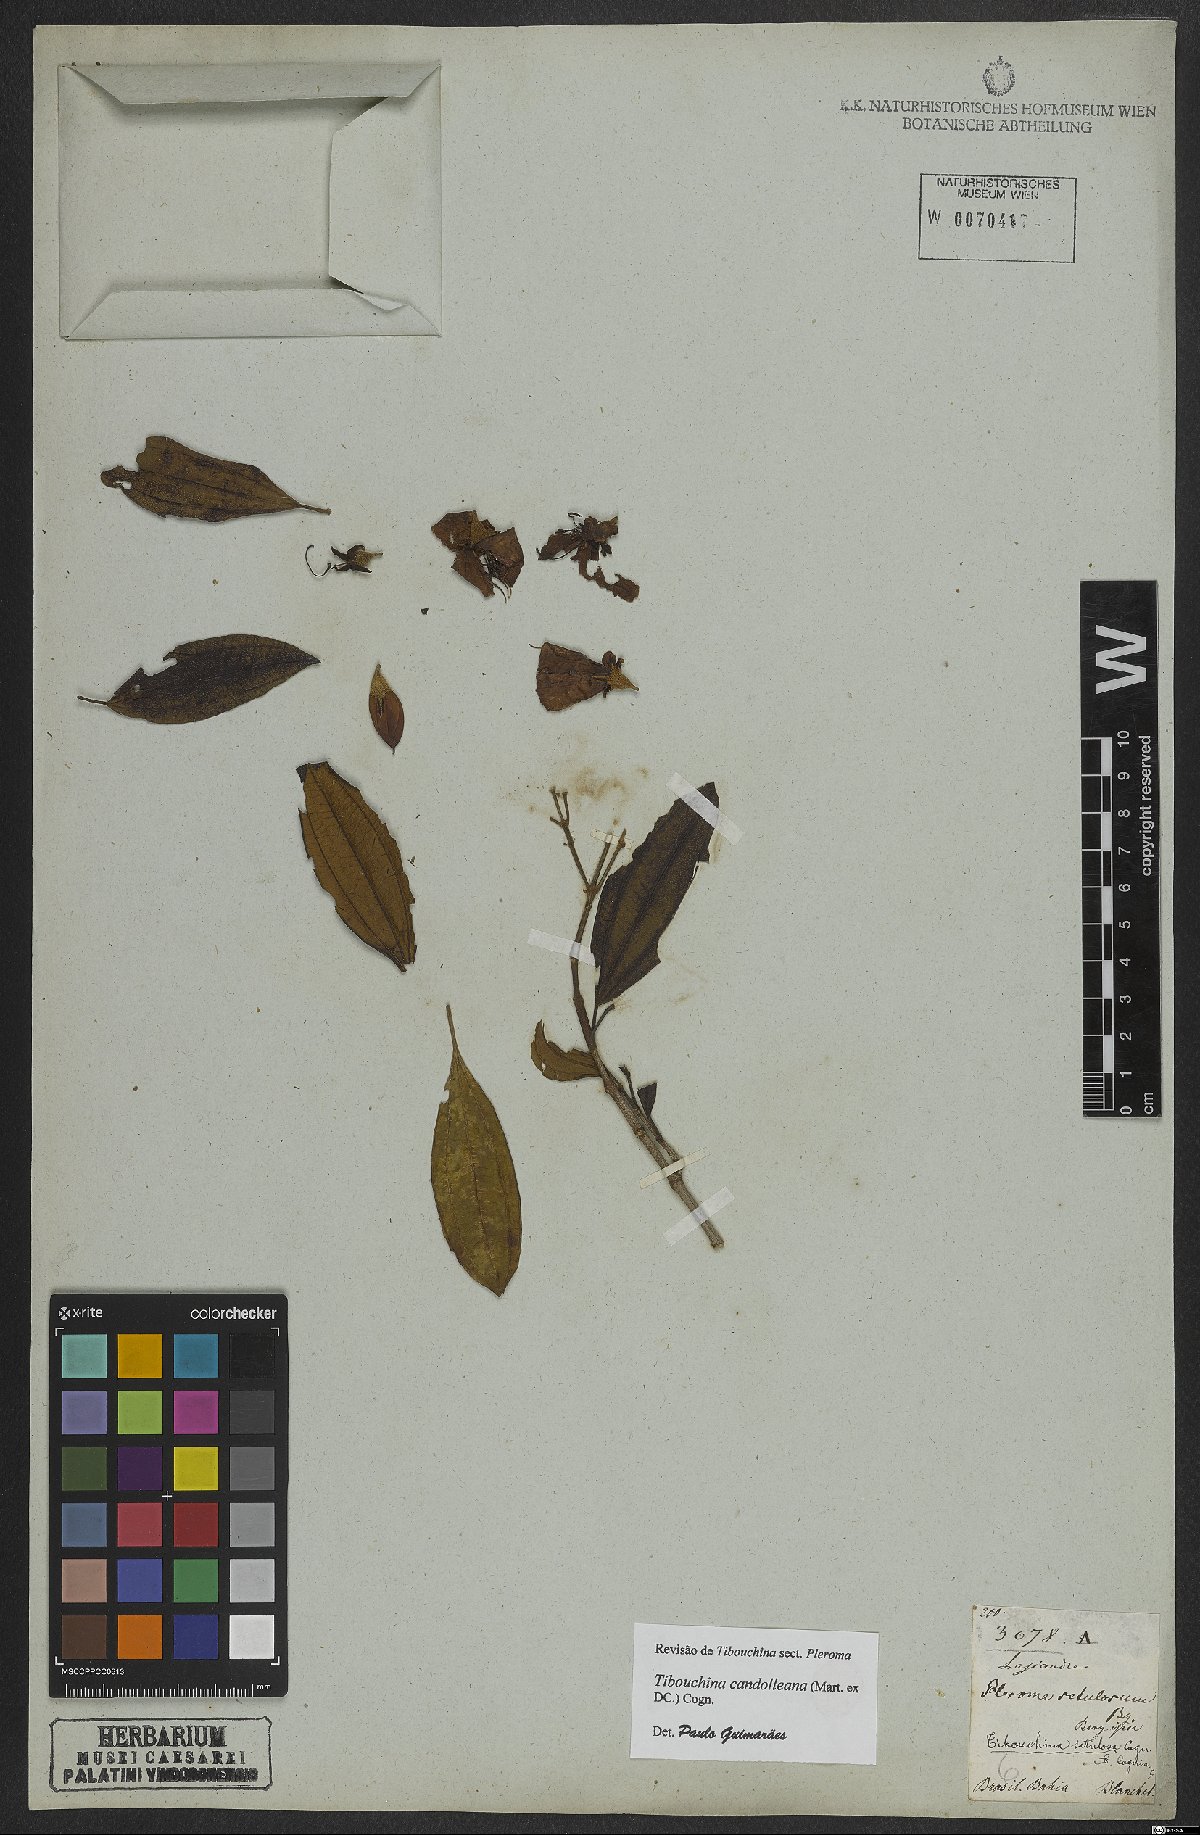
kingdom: Plantae
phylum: Tracheophyta
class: Magnoliopsida
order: Myrtales
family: Melastomataceae
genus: Pleroma
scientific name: Pleroma candolleanum
